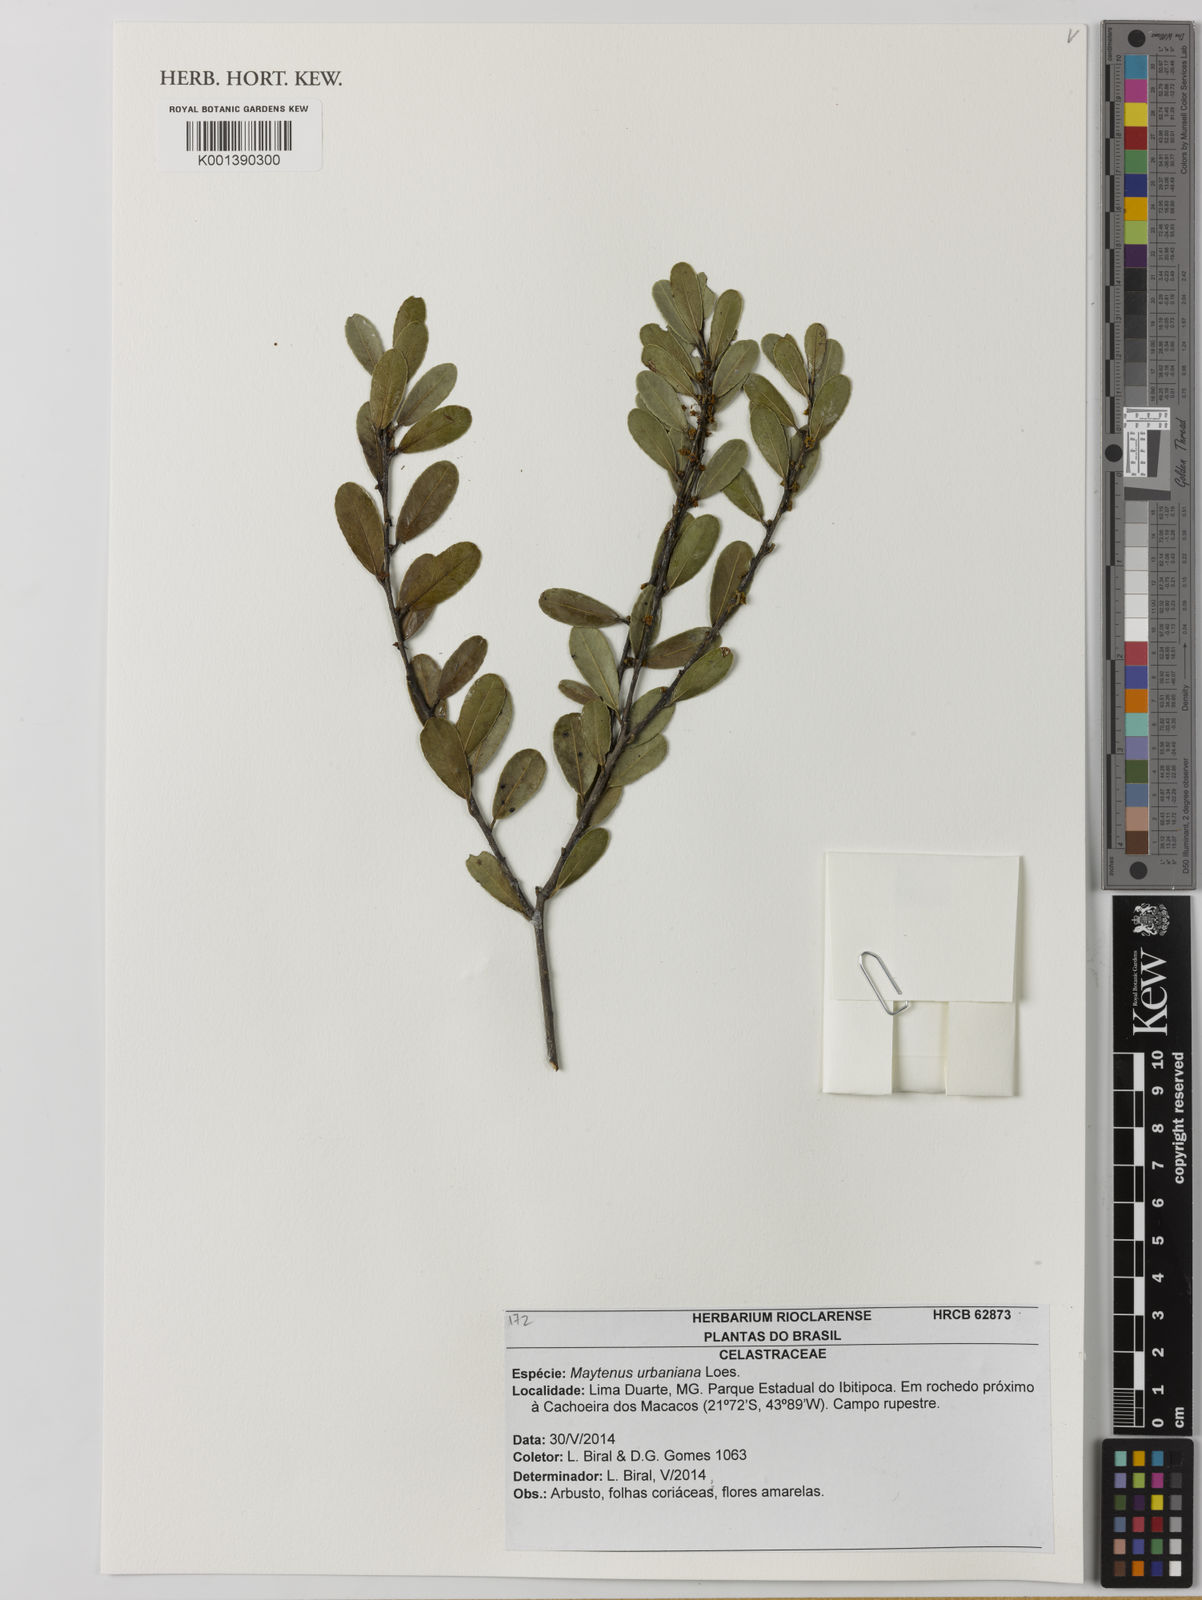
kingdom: Plantae
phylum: Tracheophyta
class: Magnoliopsida
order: Celastrales
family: Celastraceae
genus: Monteverdia
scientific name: Monteverdia urbaniana
